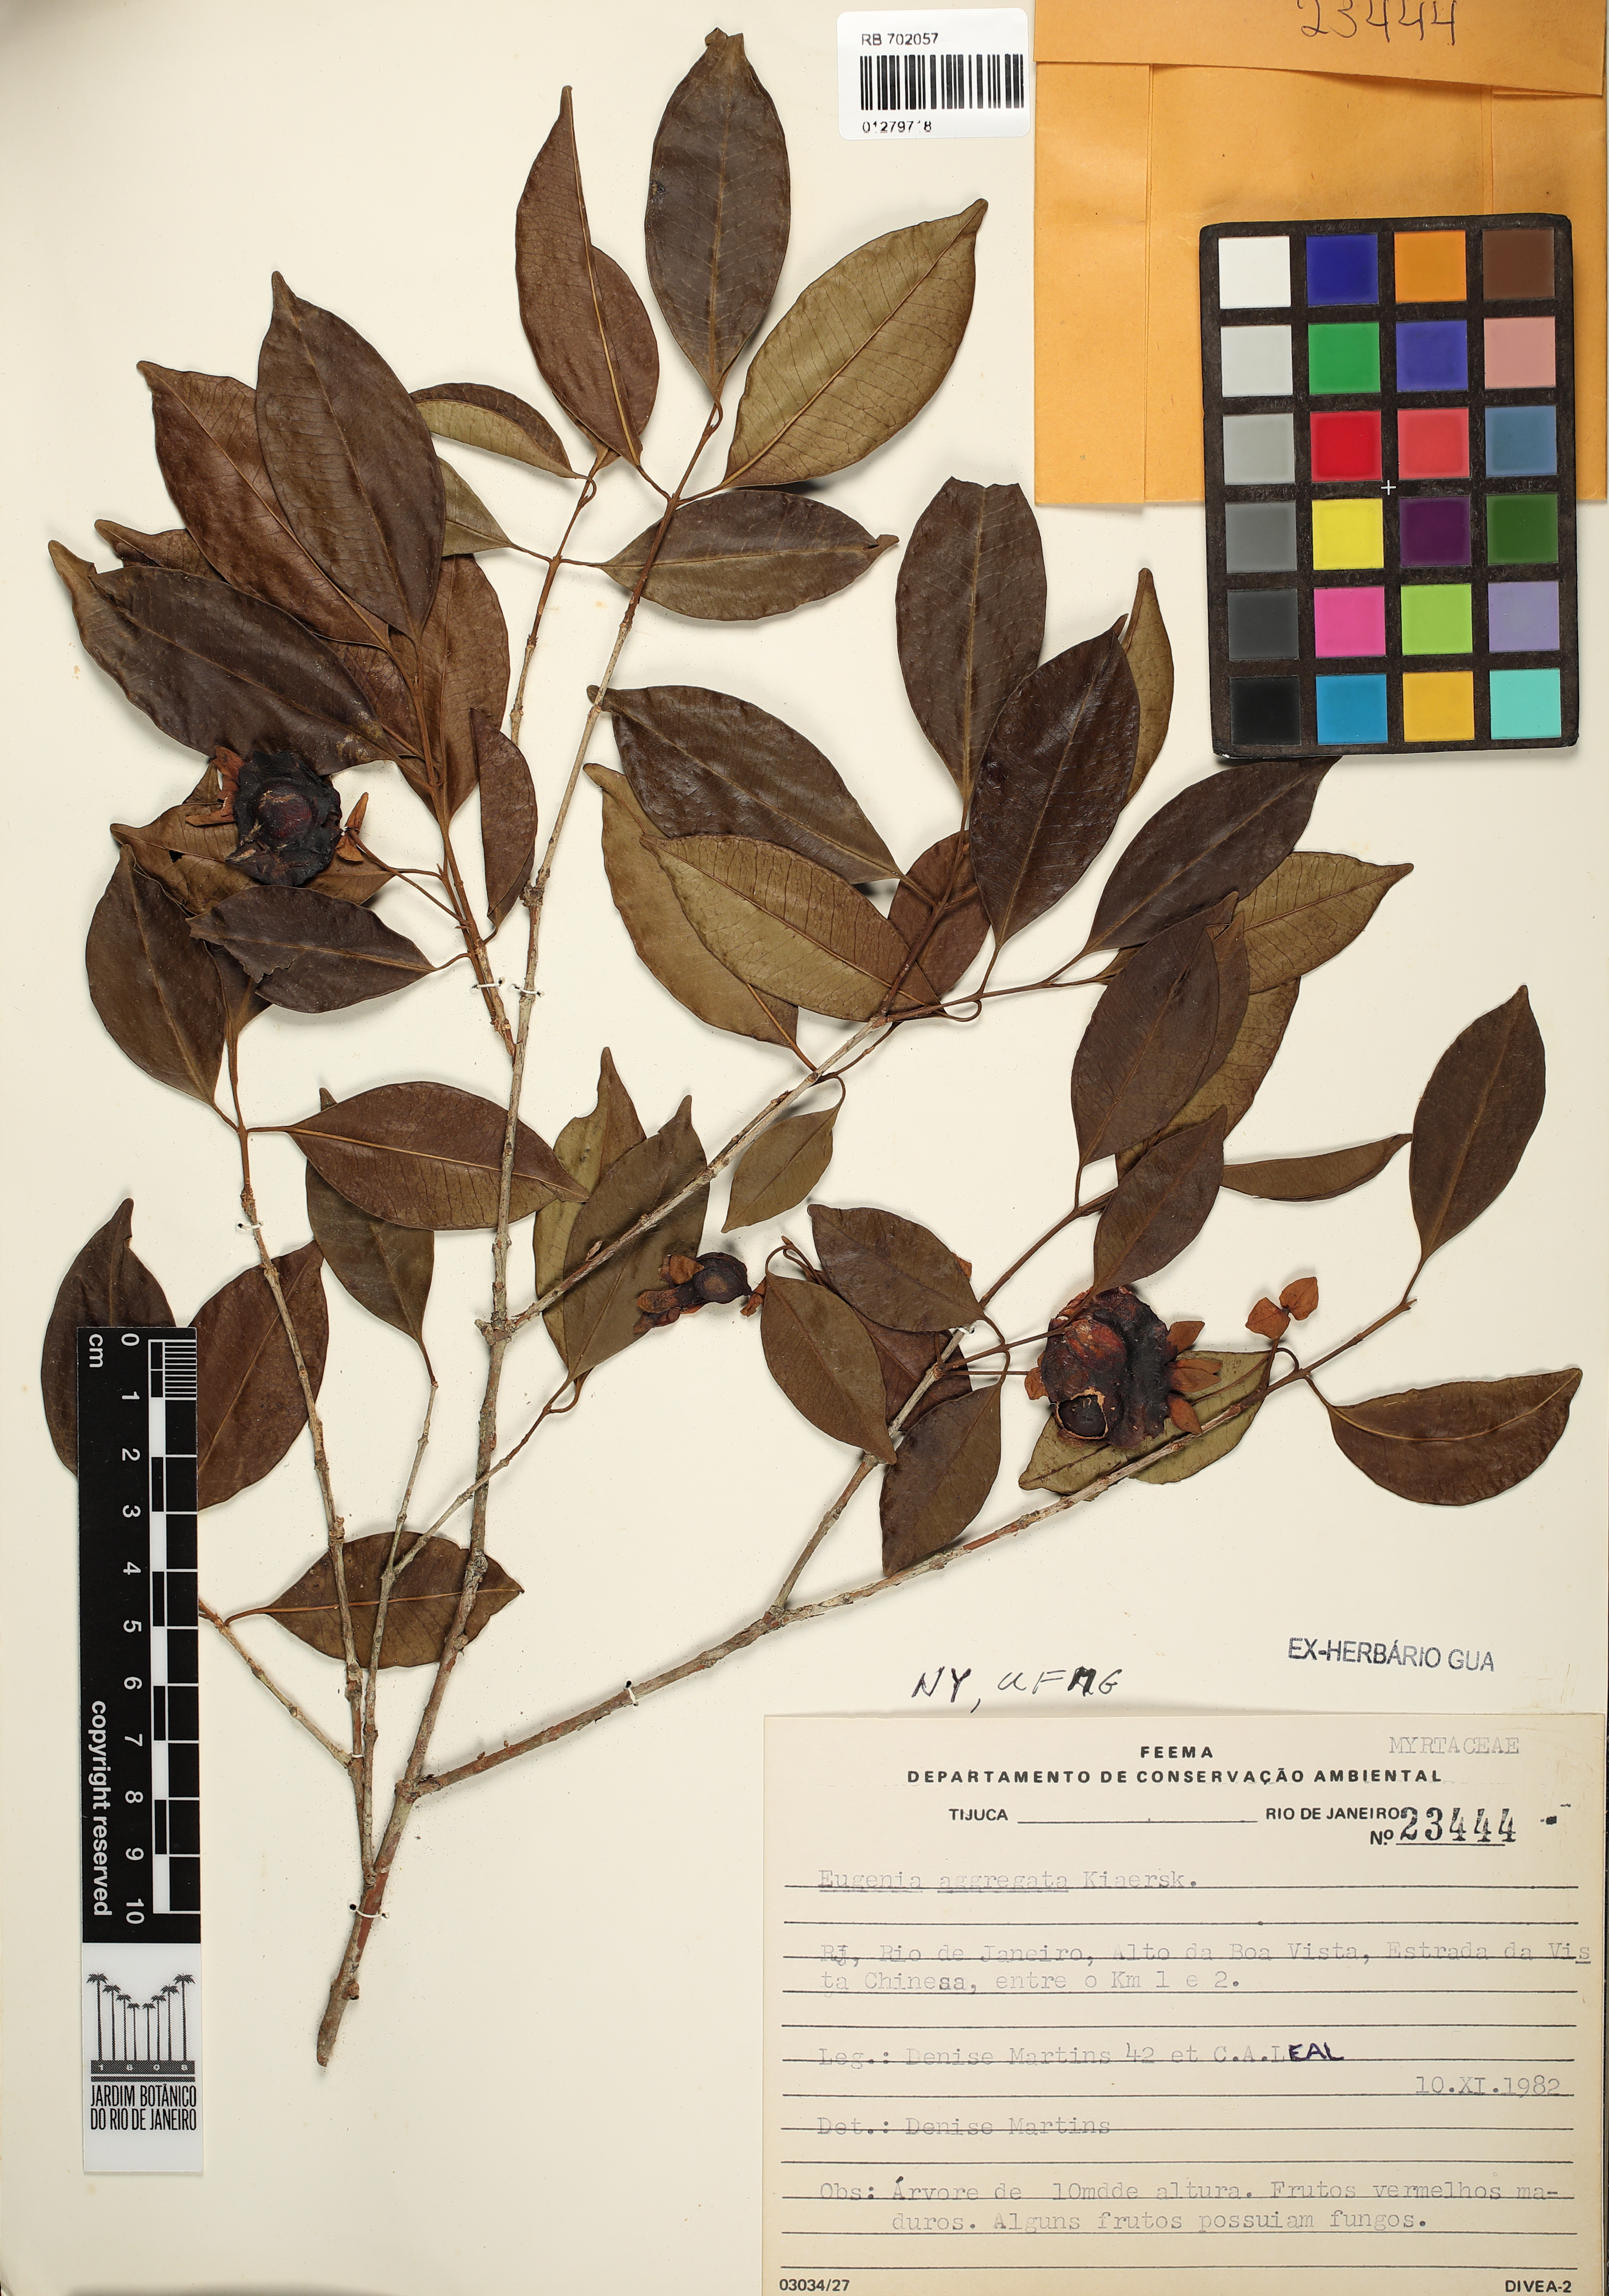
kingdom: Plantae
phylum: Tracheophyta
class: Magnoliopsida
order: Myrtales
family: Myrtaceae
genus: Eugenia
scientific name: Eugenia cerasiflora
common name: Cherry-of-the-rio-grande
